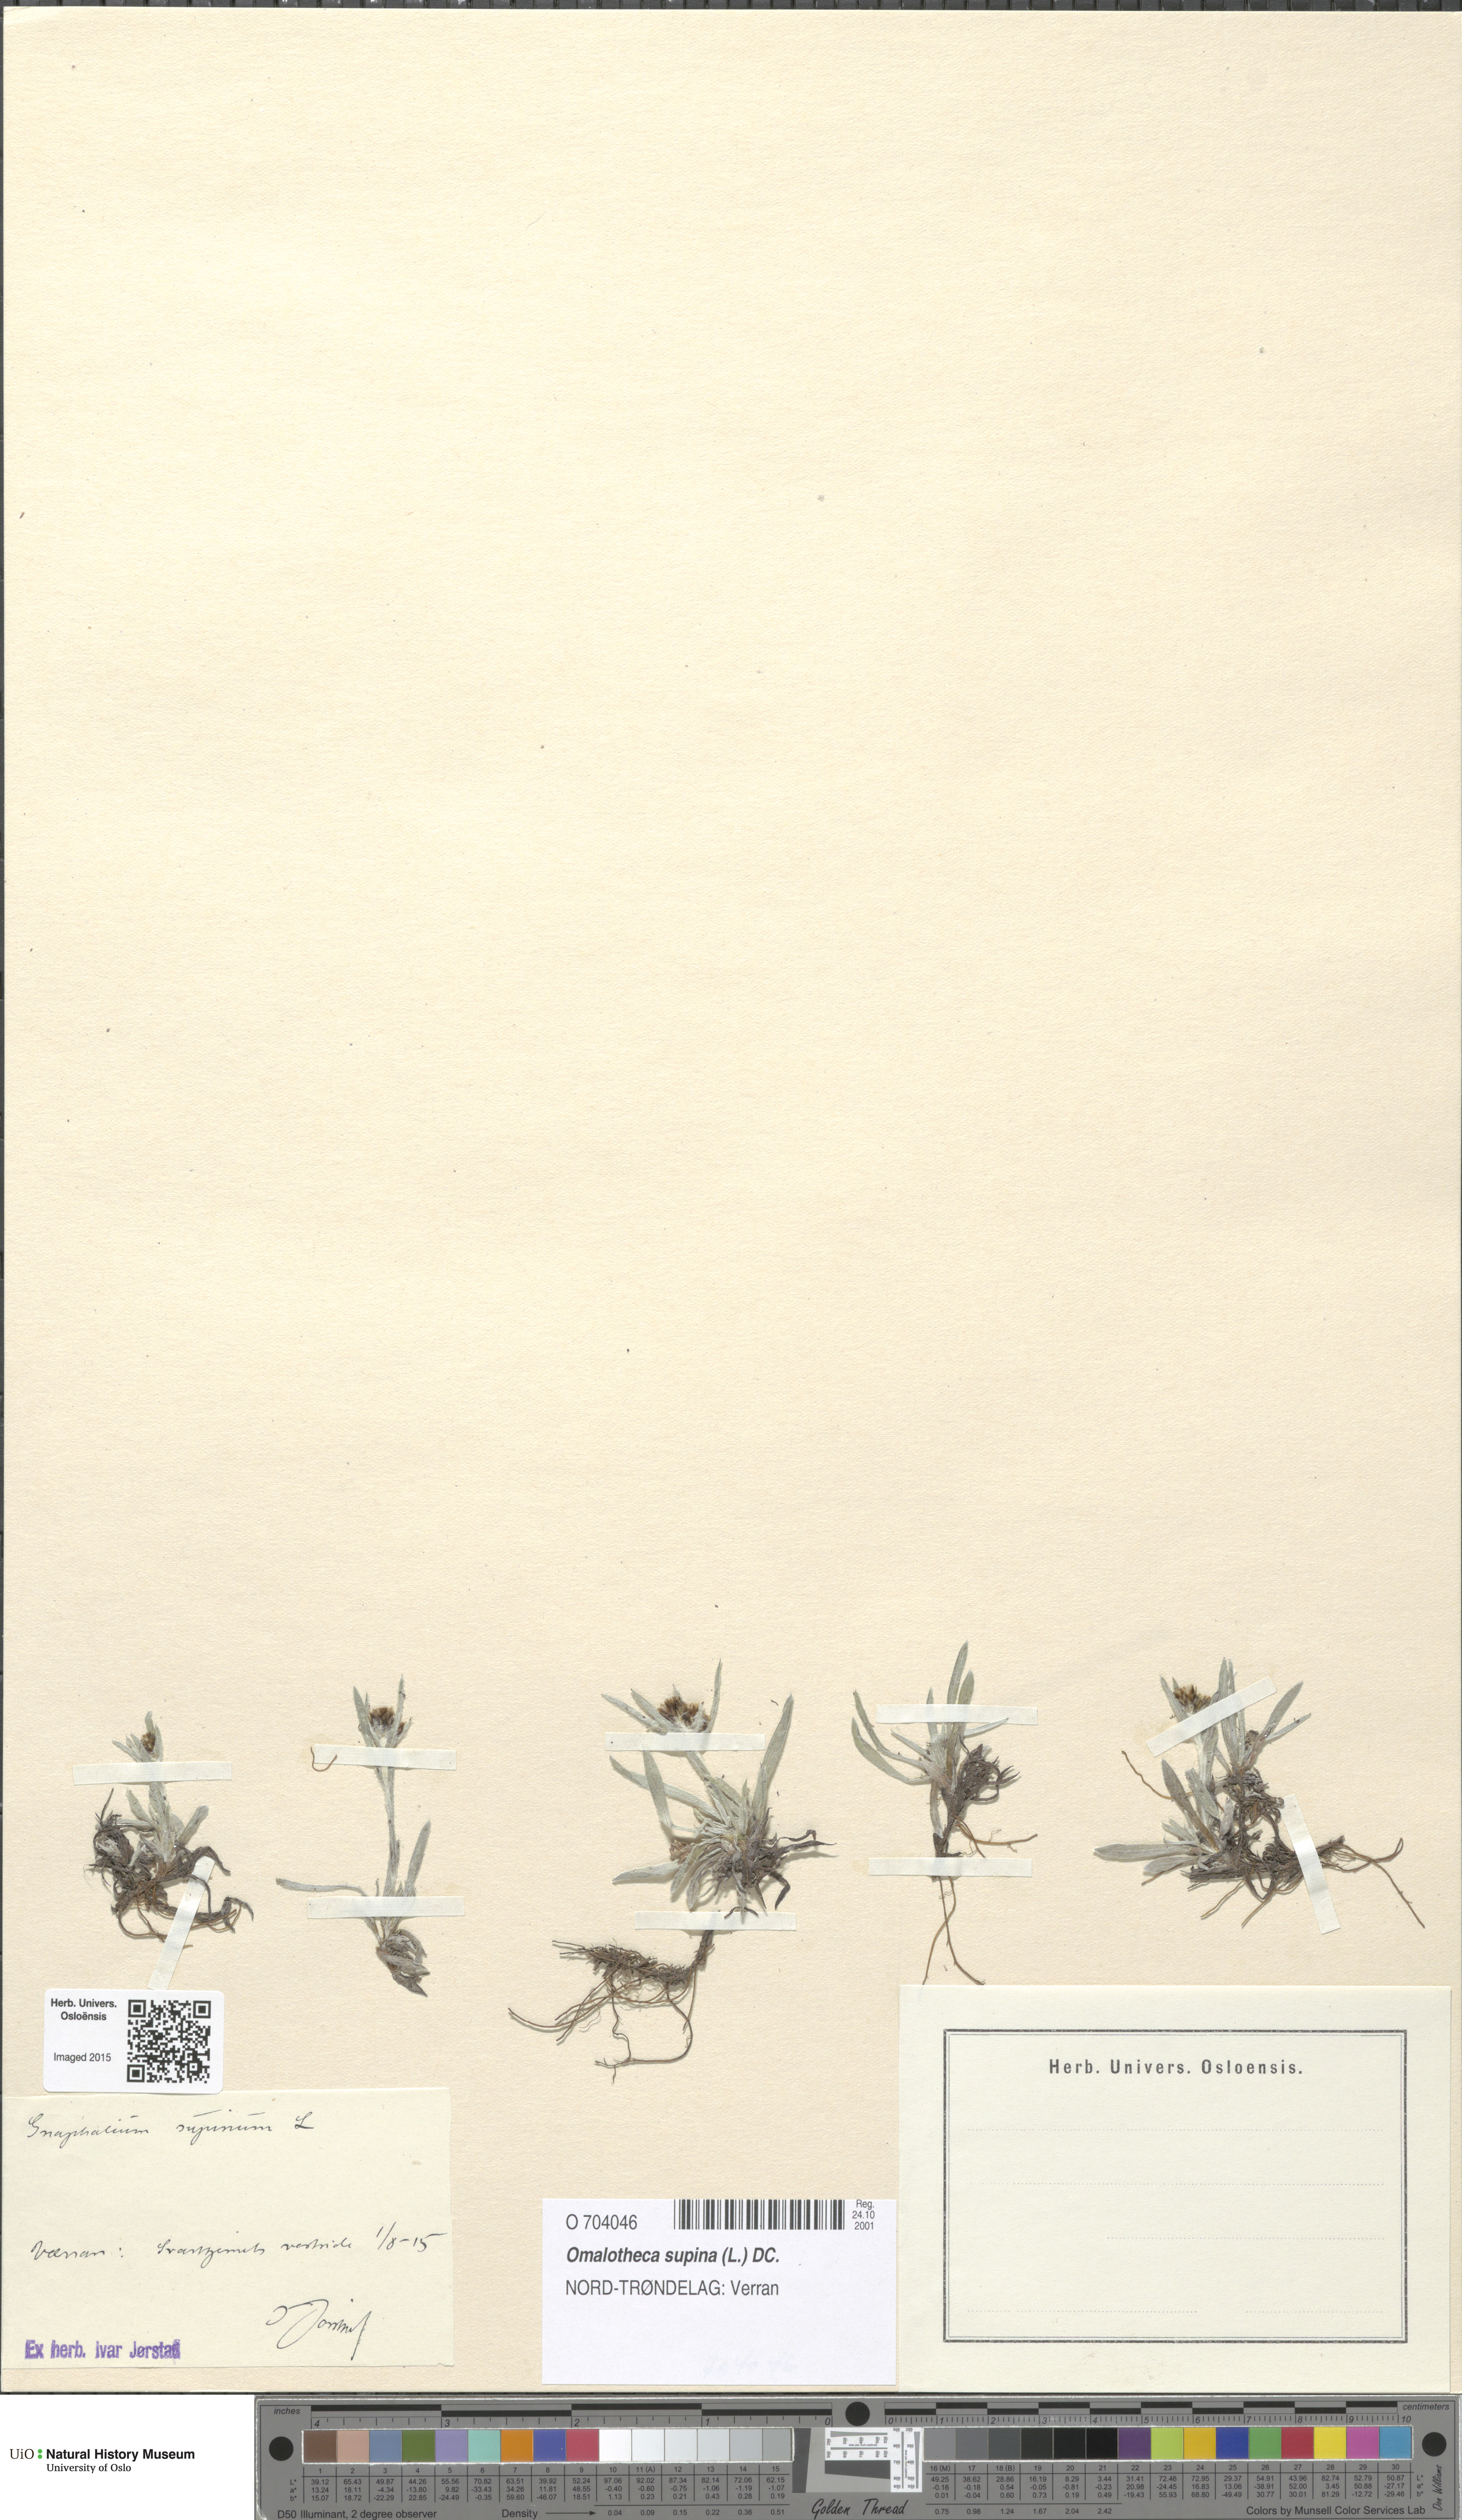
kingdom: Plantae
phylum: Tracheophyta
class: Magnoliopsida
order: Asterales
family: Asteraceae
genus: Omalotheca
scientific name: Omalotheca supina
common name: Alpine arctic-cudweed
